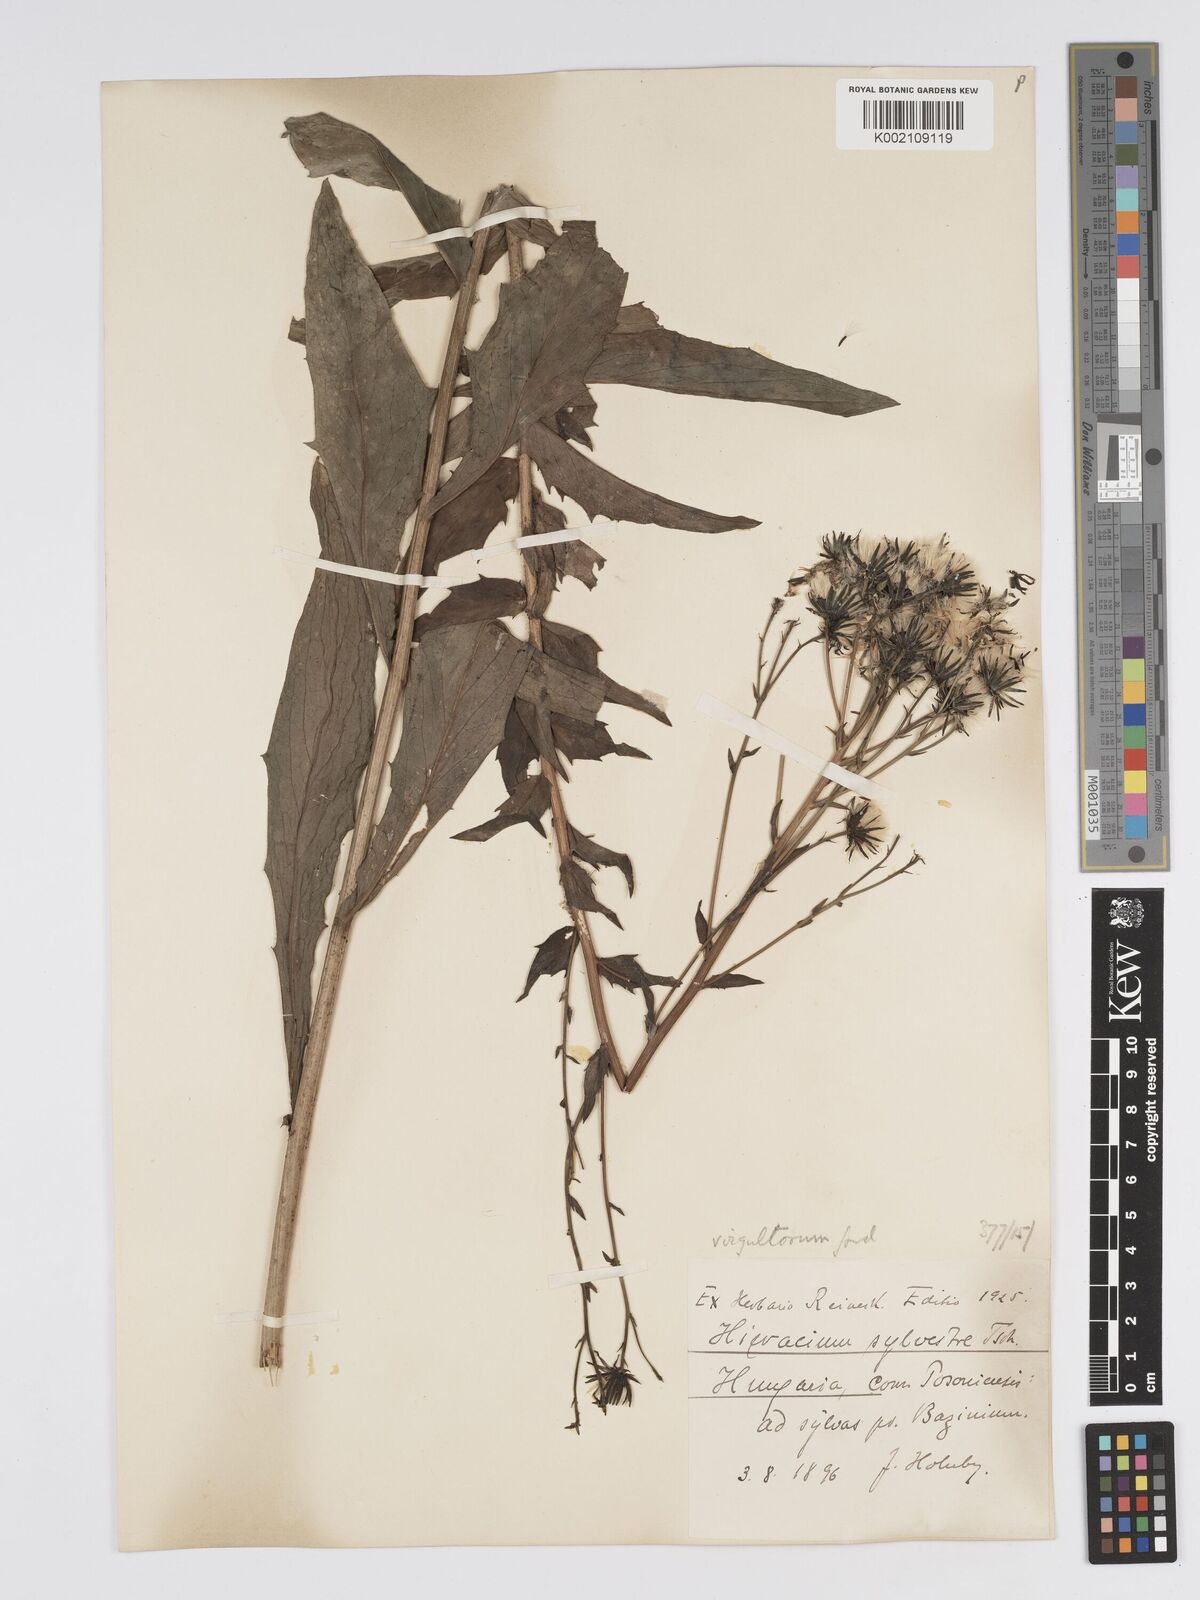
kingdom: Plantae
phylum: Tracheophyta
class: Magnoliopsida
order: Asterales
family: Asteraceae
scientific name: Asteraceae
